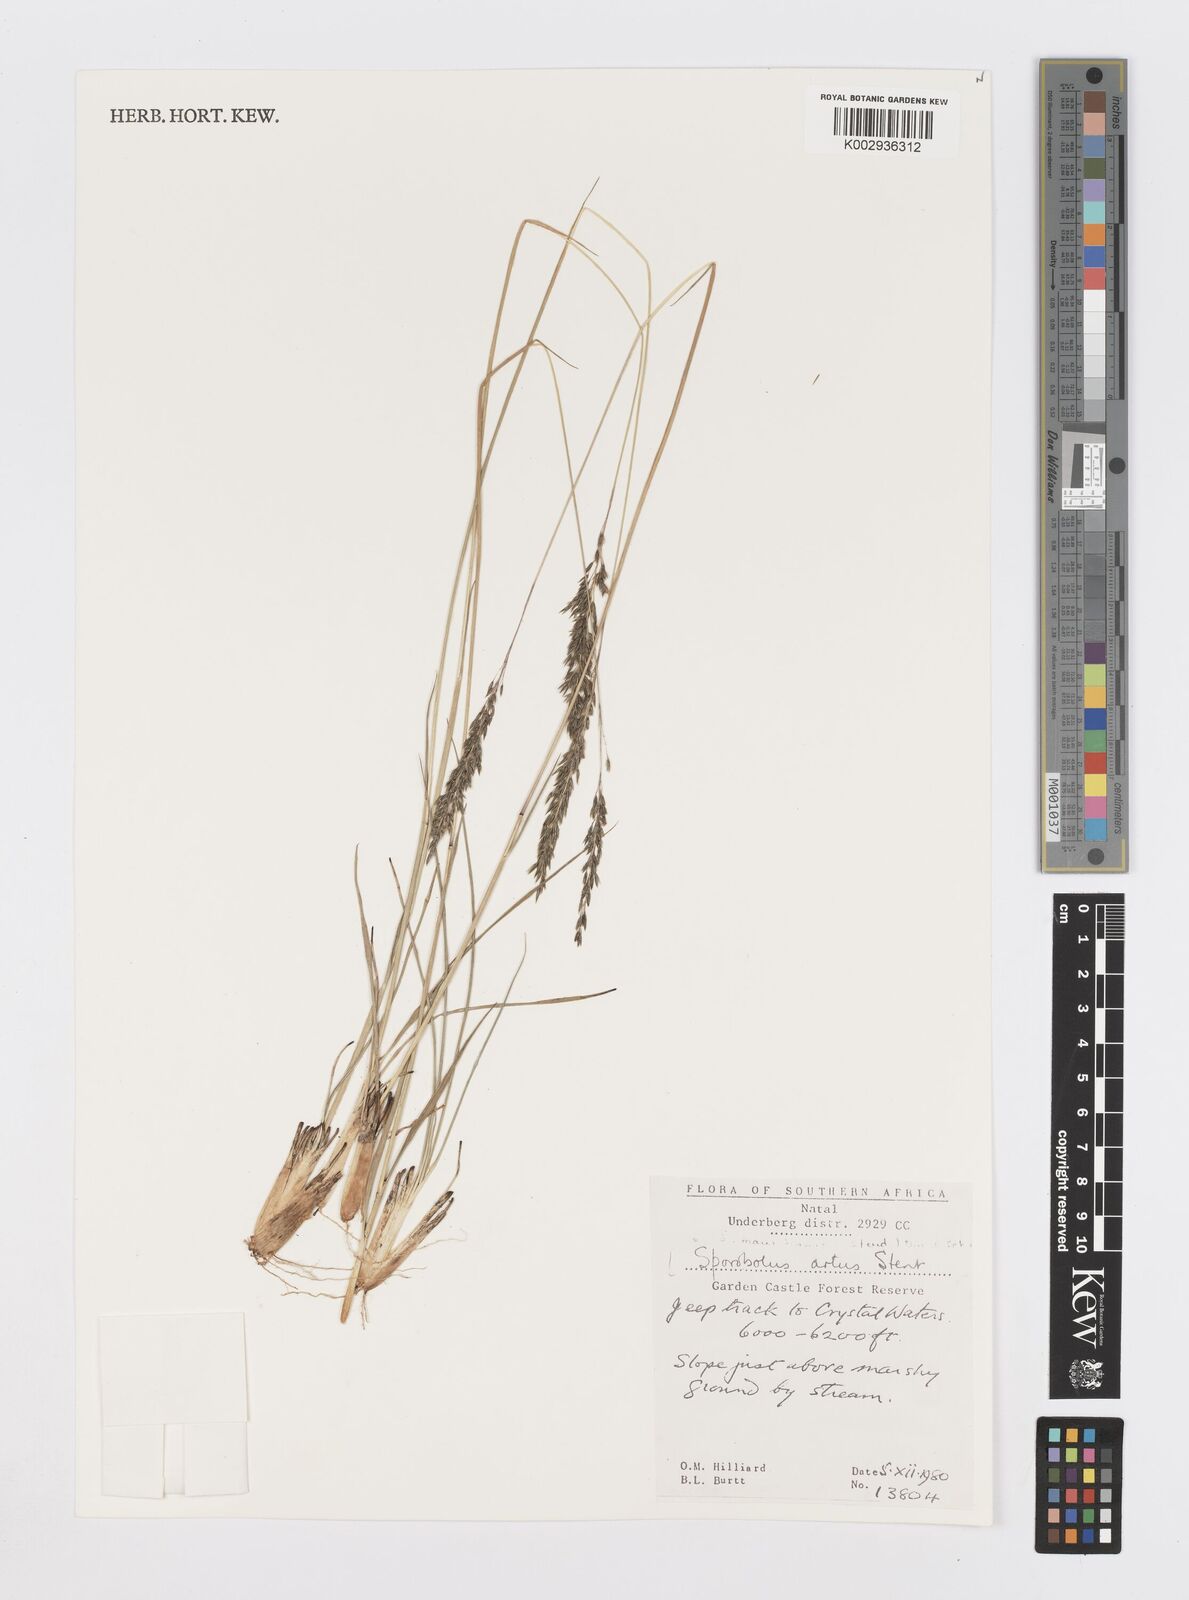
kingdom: Plantae
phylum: Tracheophyta
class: Liliopsida
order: Poales
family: Poaceae
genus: Sporobolus
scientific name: Sporobolus subulatus
